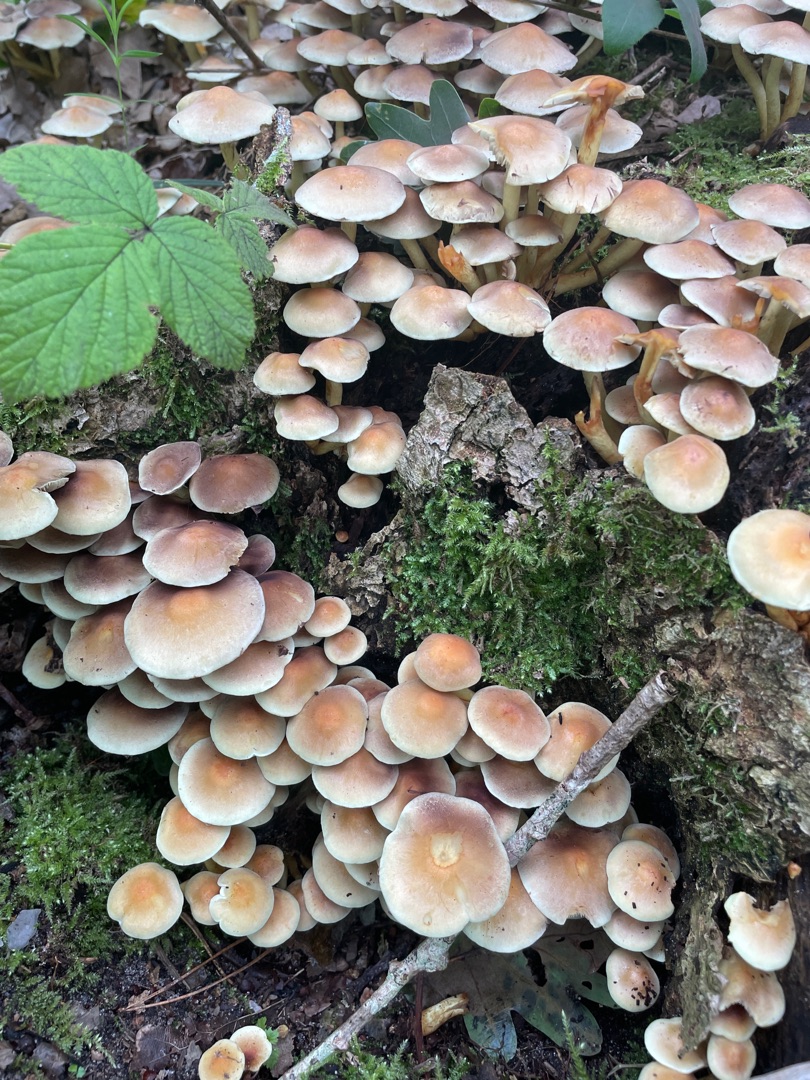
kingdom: Fungi
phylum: Basidiomycota
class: Agaricomycetes
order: Agaricales
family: Strophariaceae
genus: Hypholoma
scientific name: Hypholoma fasciculare
